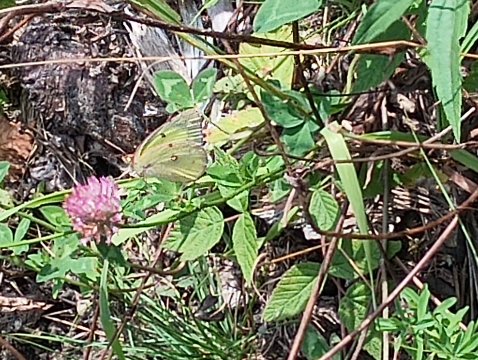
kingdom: Animalia
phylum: Arthropoda
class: Insecta
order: Lepidoptera
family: Pieridae
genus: Colias
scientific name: Colias philodice
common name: Clouded Sulphur
